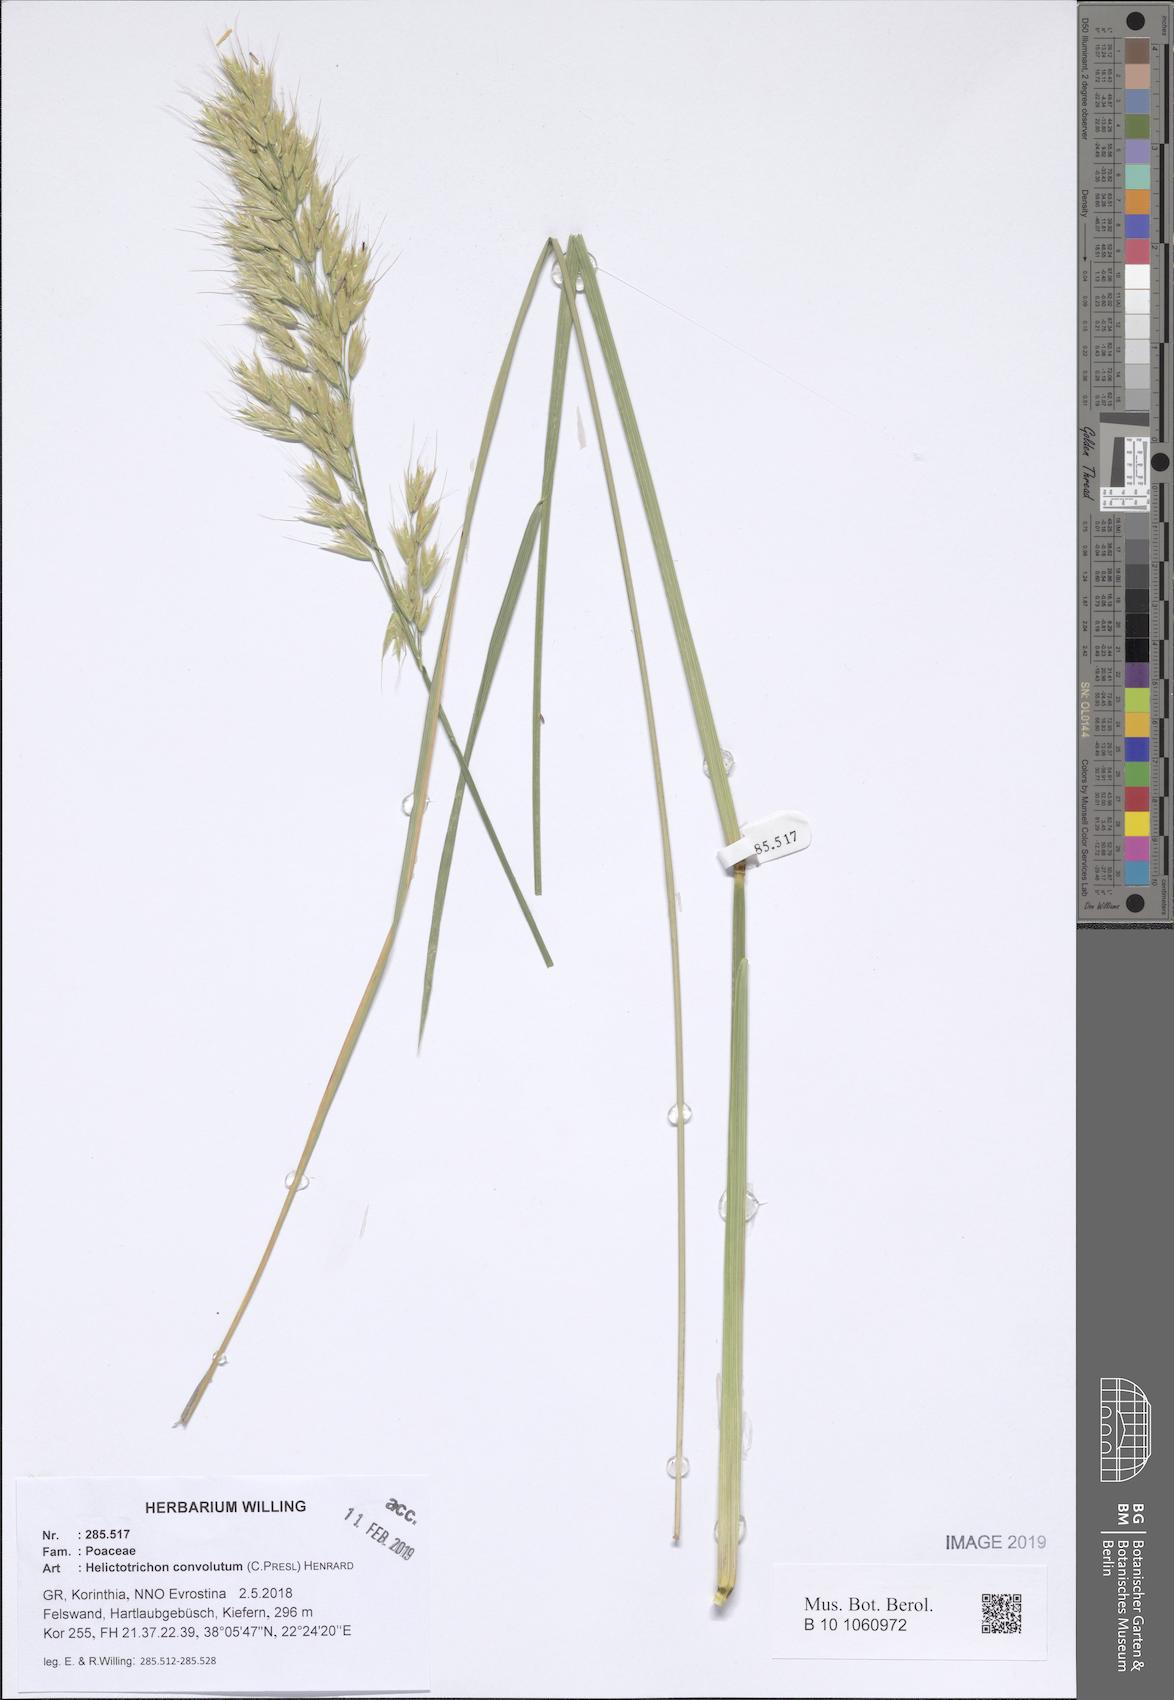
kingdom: Plantae
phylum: Tracheophyta
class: Liliopsida
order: Poales
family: Poaceae
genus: Helictotrichon
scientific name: Helictotrichon convolutum
